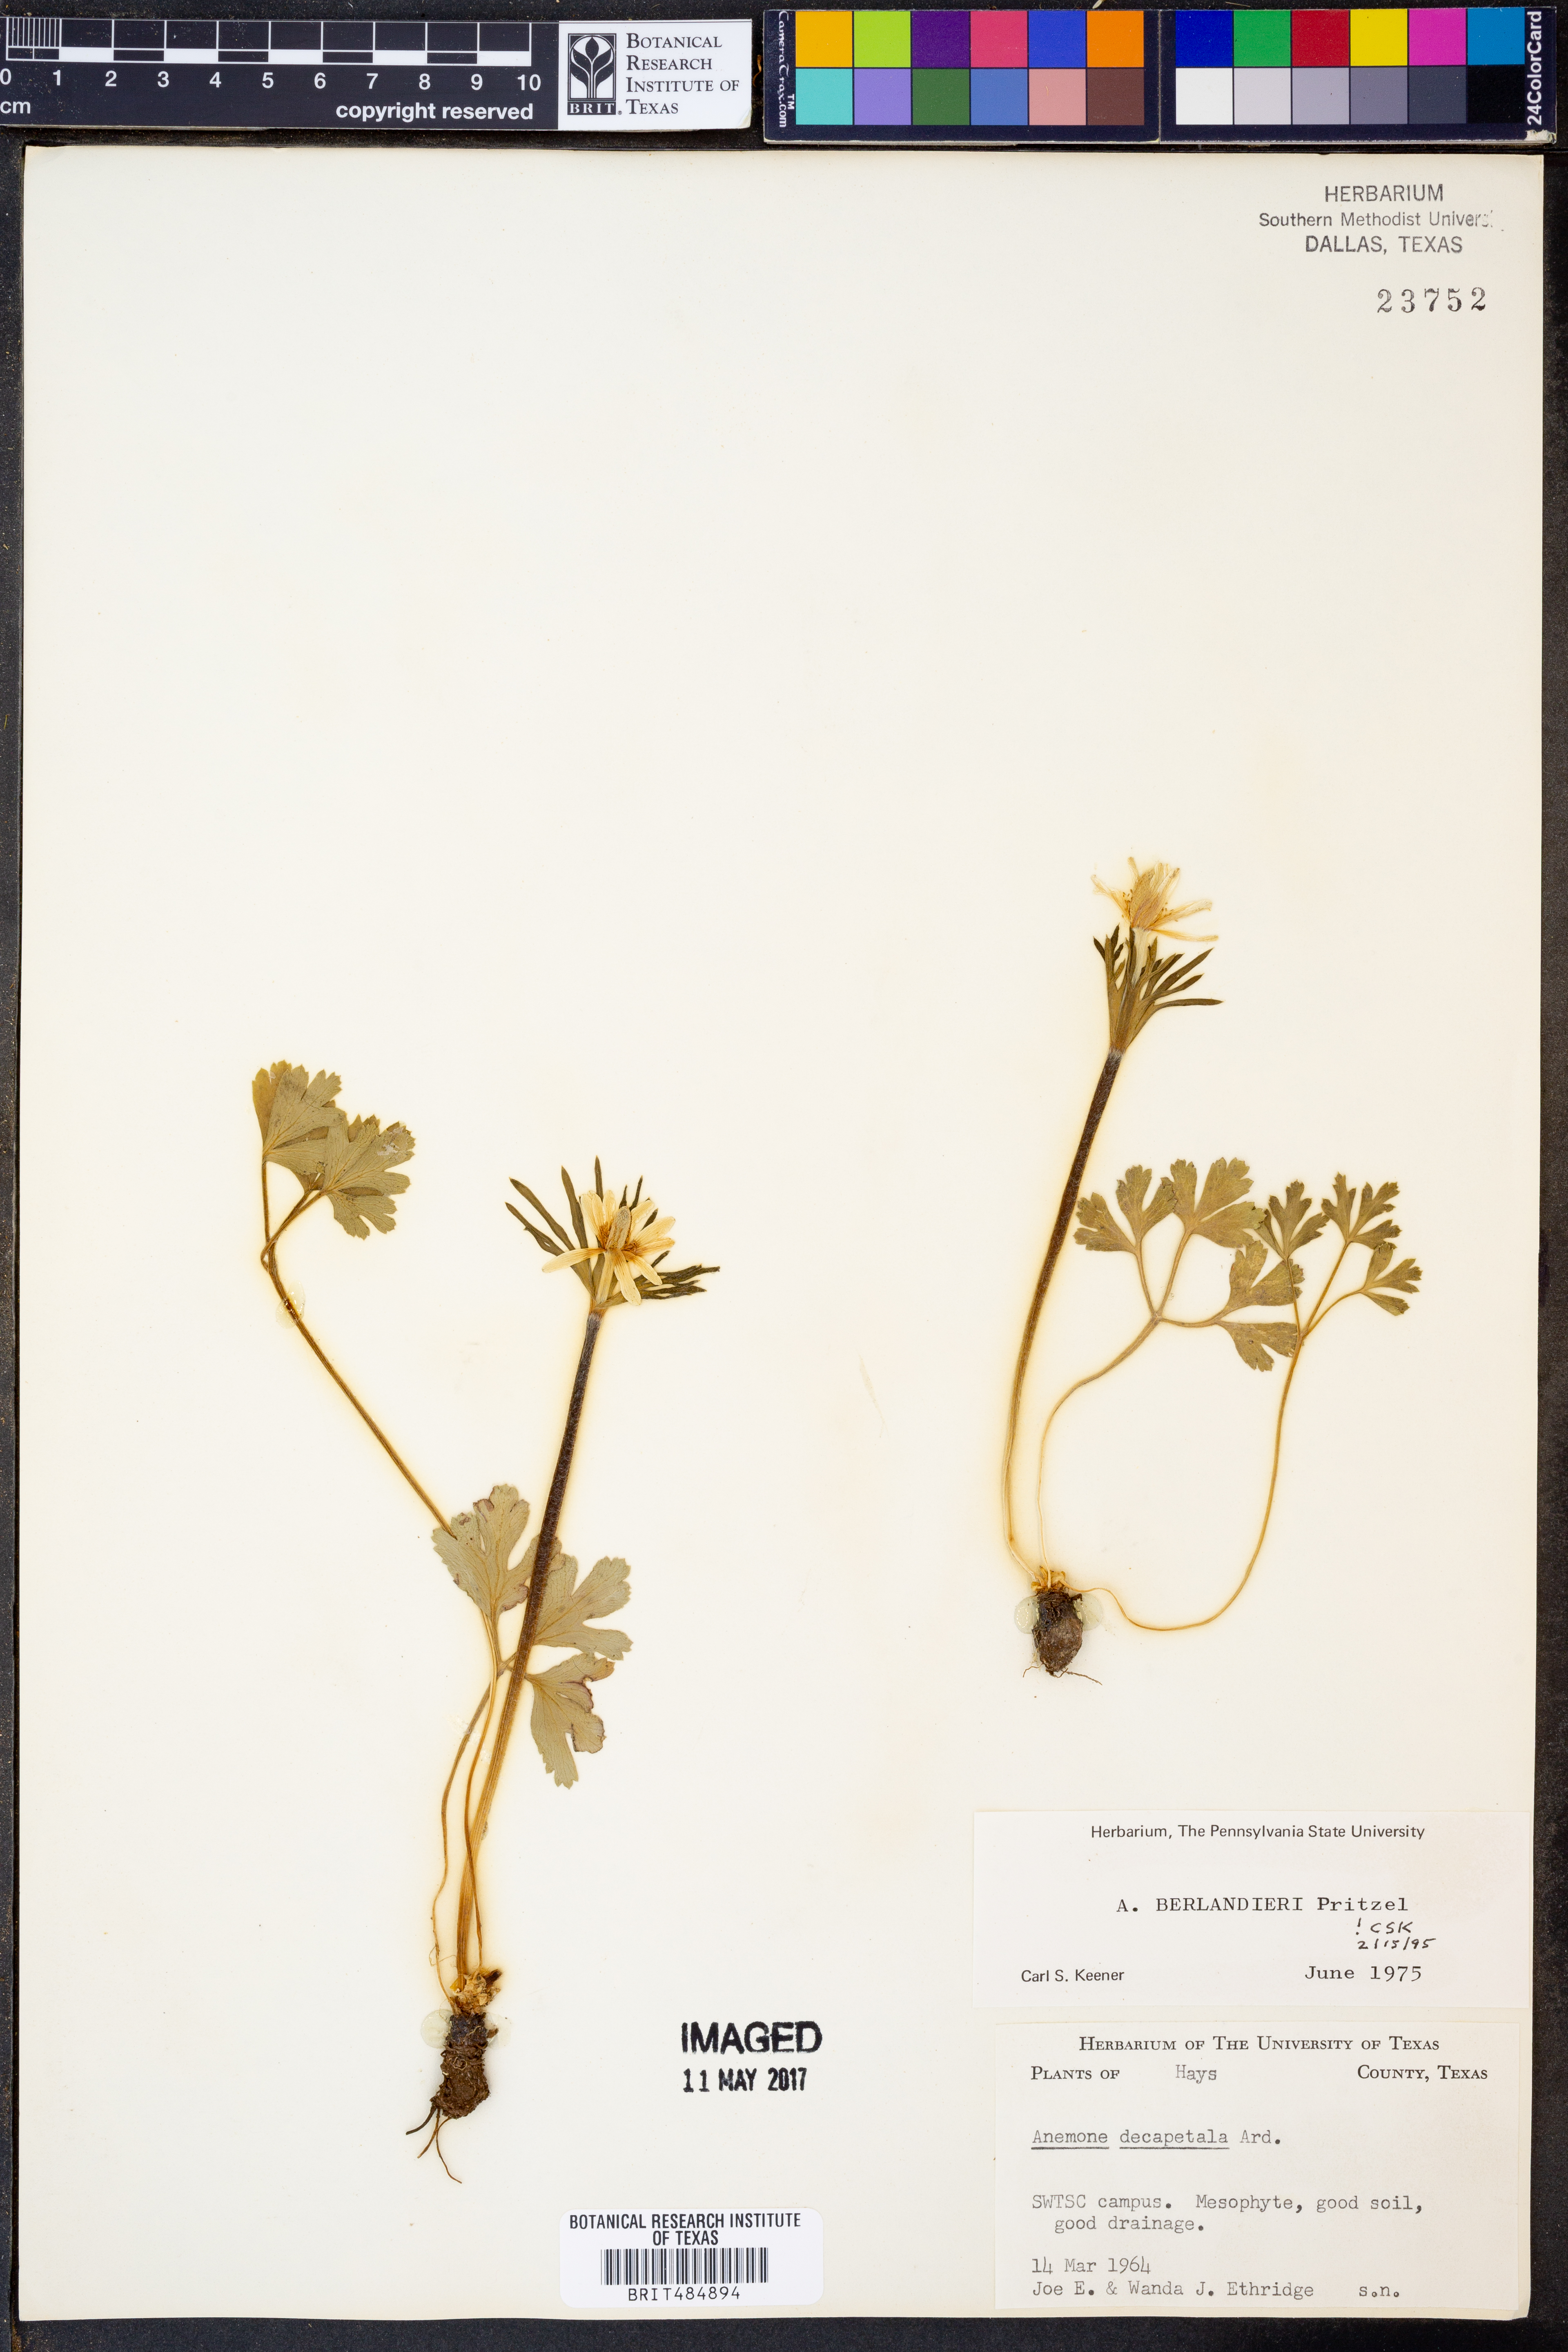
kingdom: Plantae
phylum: Tracheophyta
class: Magnoliopsida
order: Ranunculales
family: Ranunculaceae
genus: Anemone
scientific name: Anemone berlandieri
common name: Ten-petal anemone
